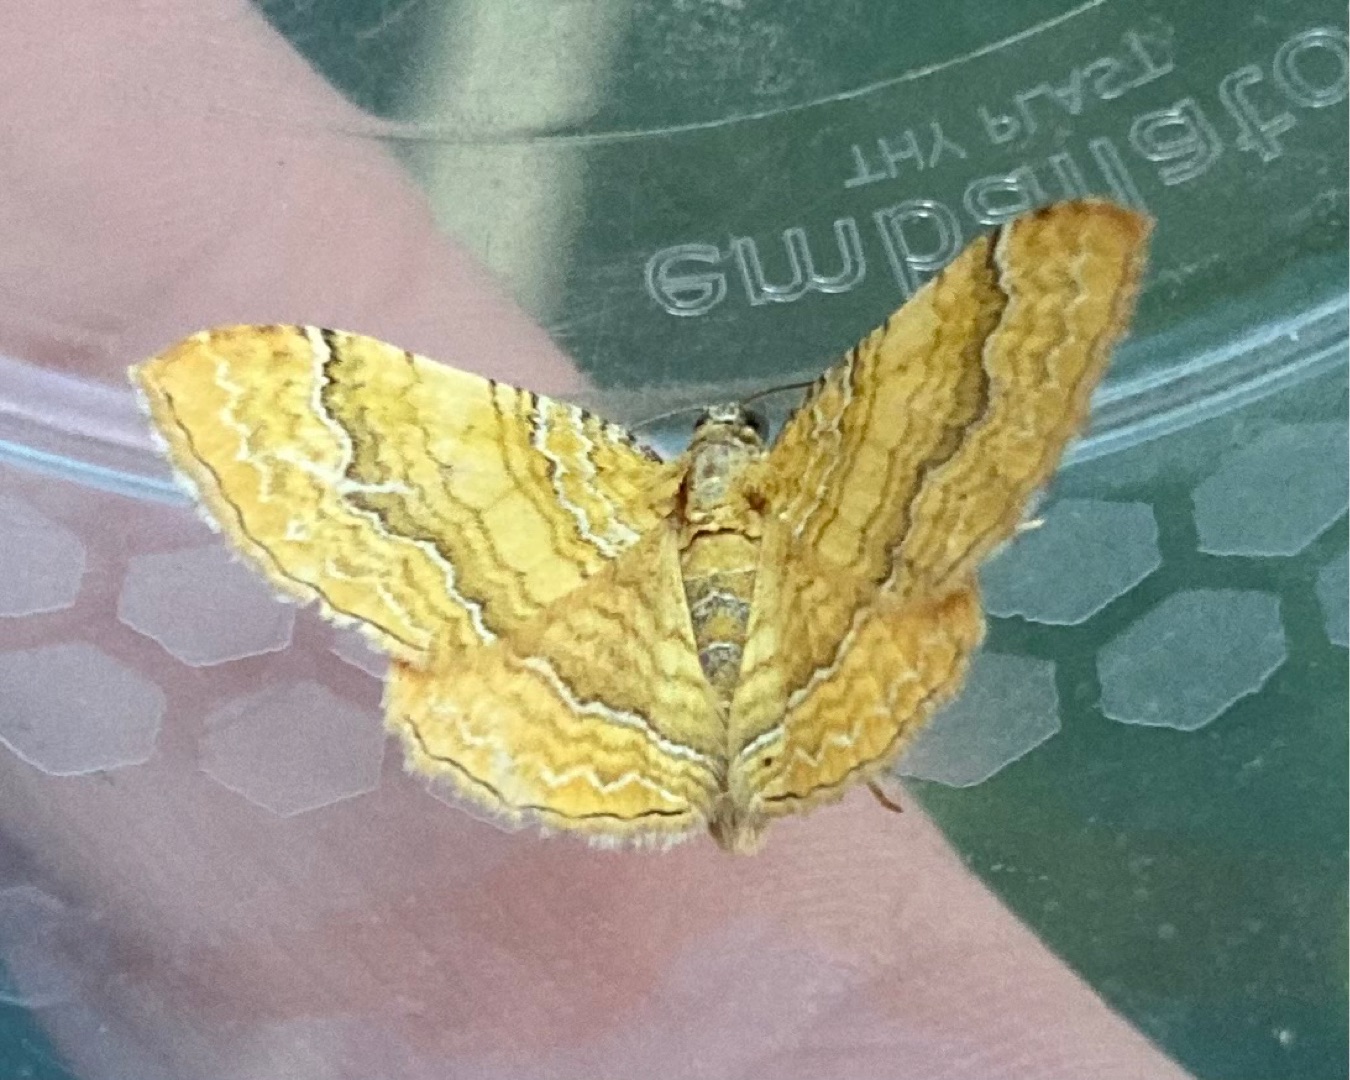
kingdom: Animalia
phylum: Arthropoda
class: Insecta
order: Lepidoptera
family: Geometridae
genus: Camptogramma
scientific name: Camptogramma bilineata
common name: Okkergul bladmåler
